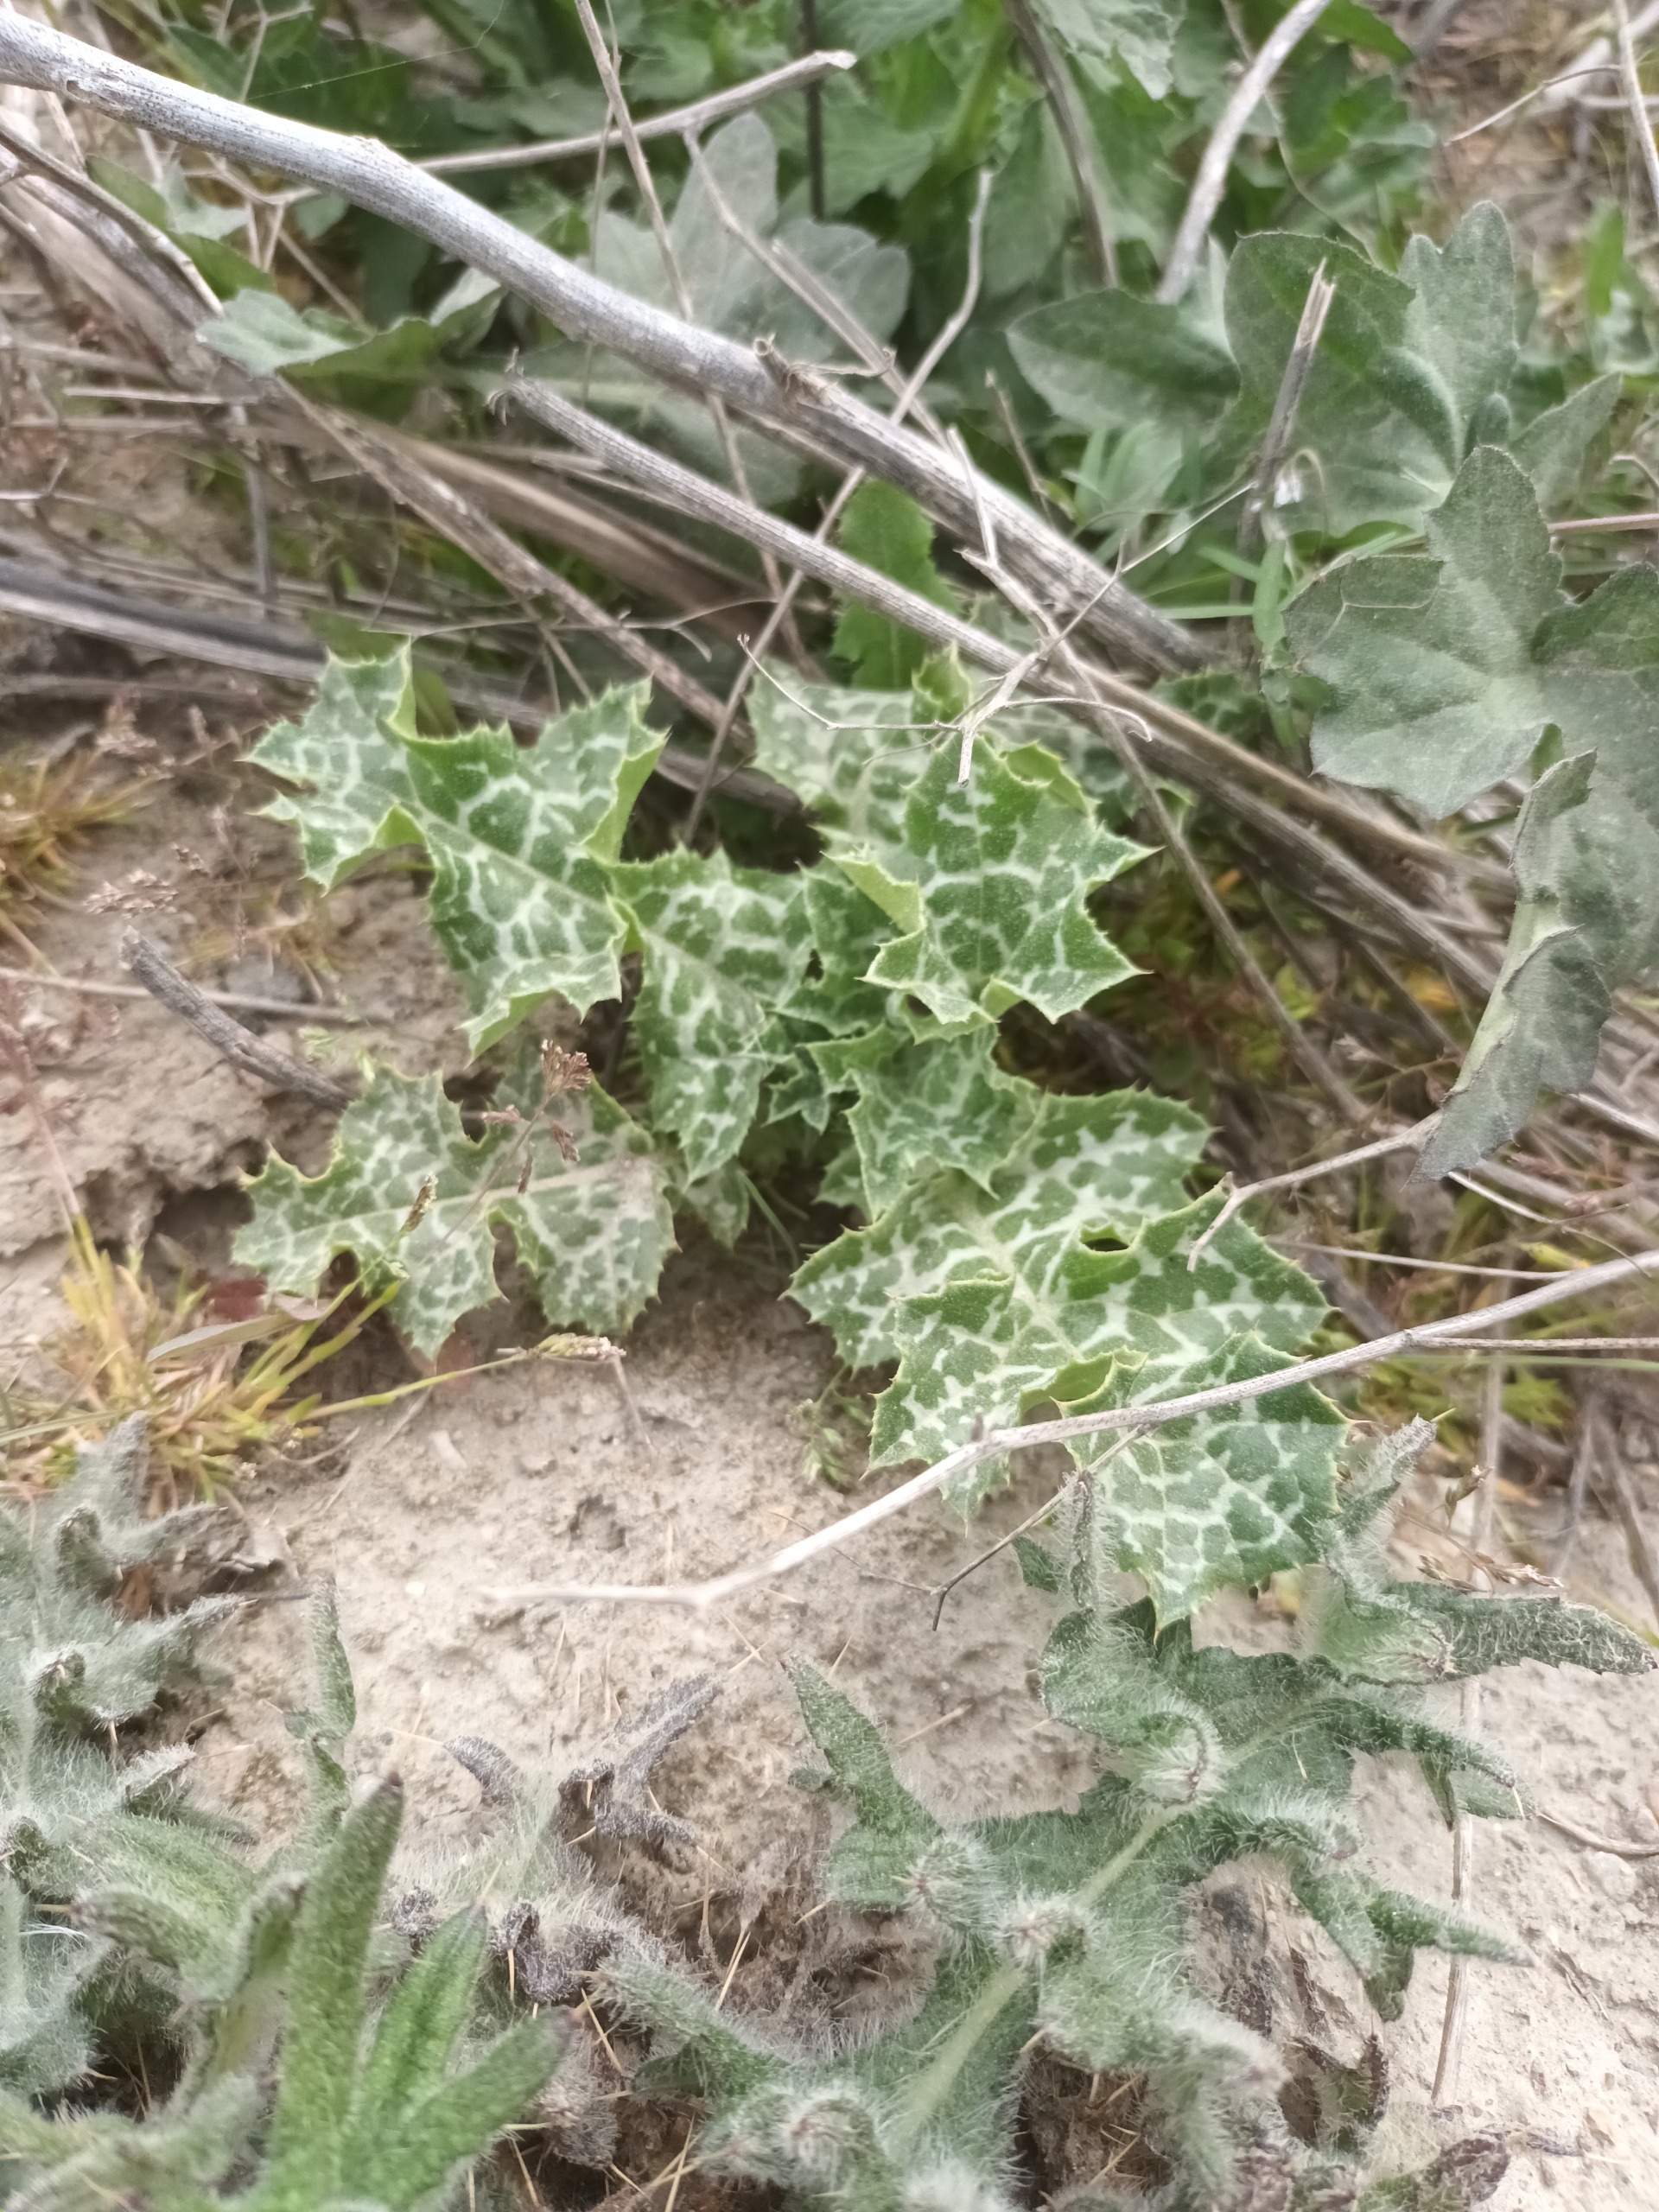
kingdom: Plantae
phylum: Tracheophyta
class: Magnoliopsida
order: Asterales
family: Asteraceae
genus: Silybum
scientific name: Silybum marianum
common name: Marietidsel
